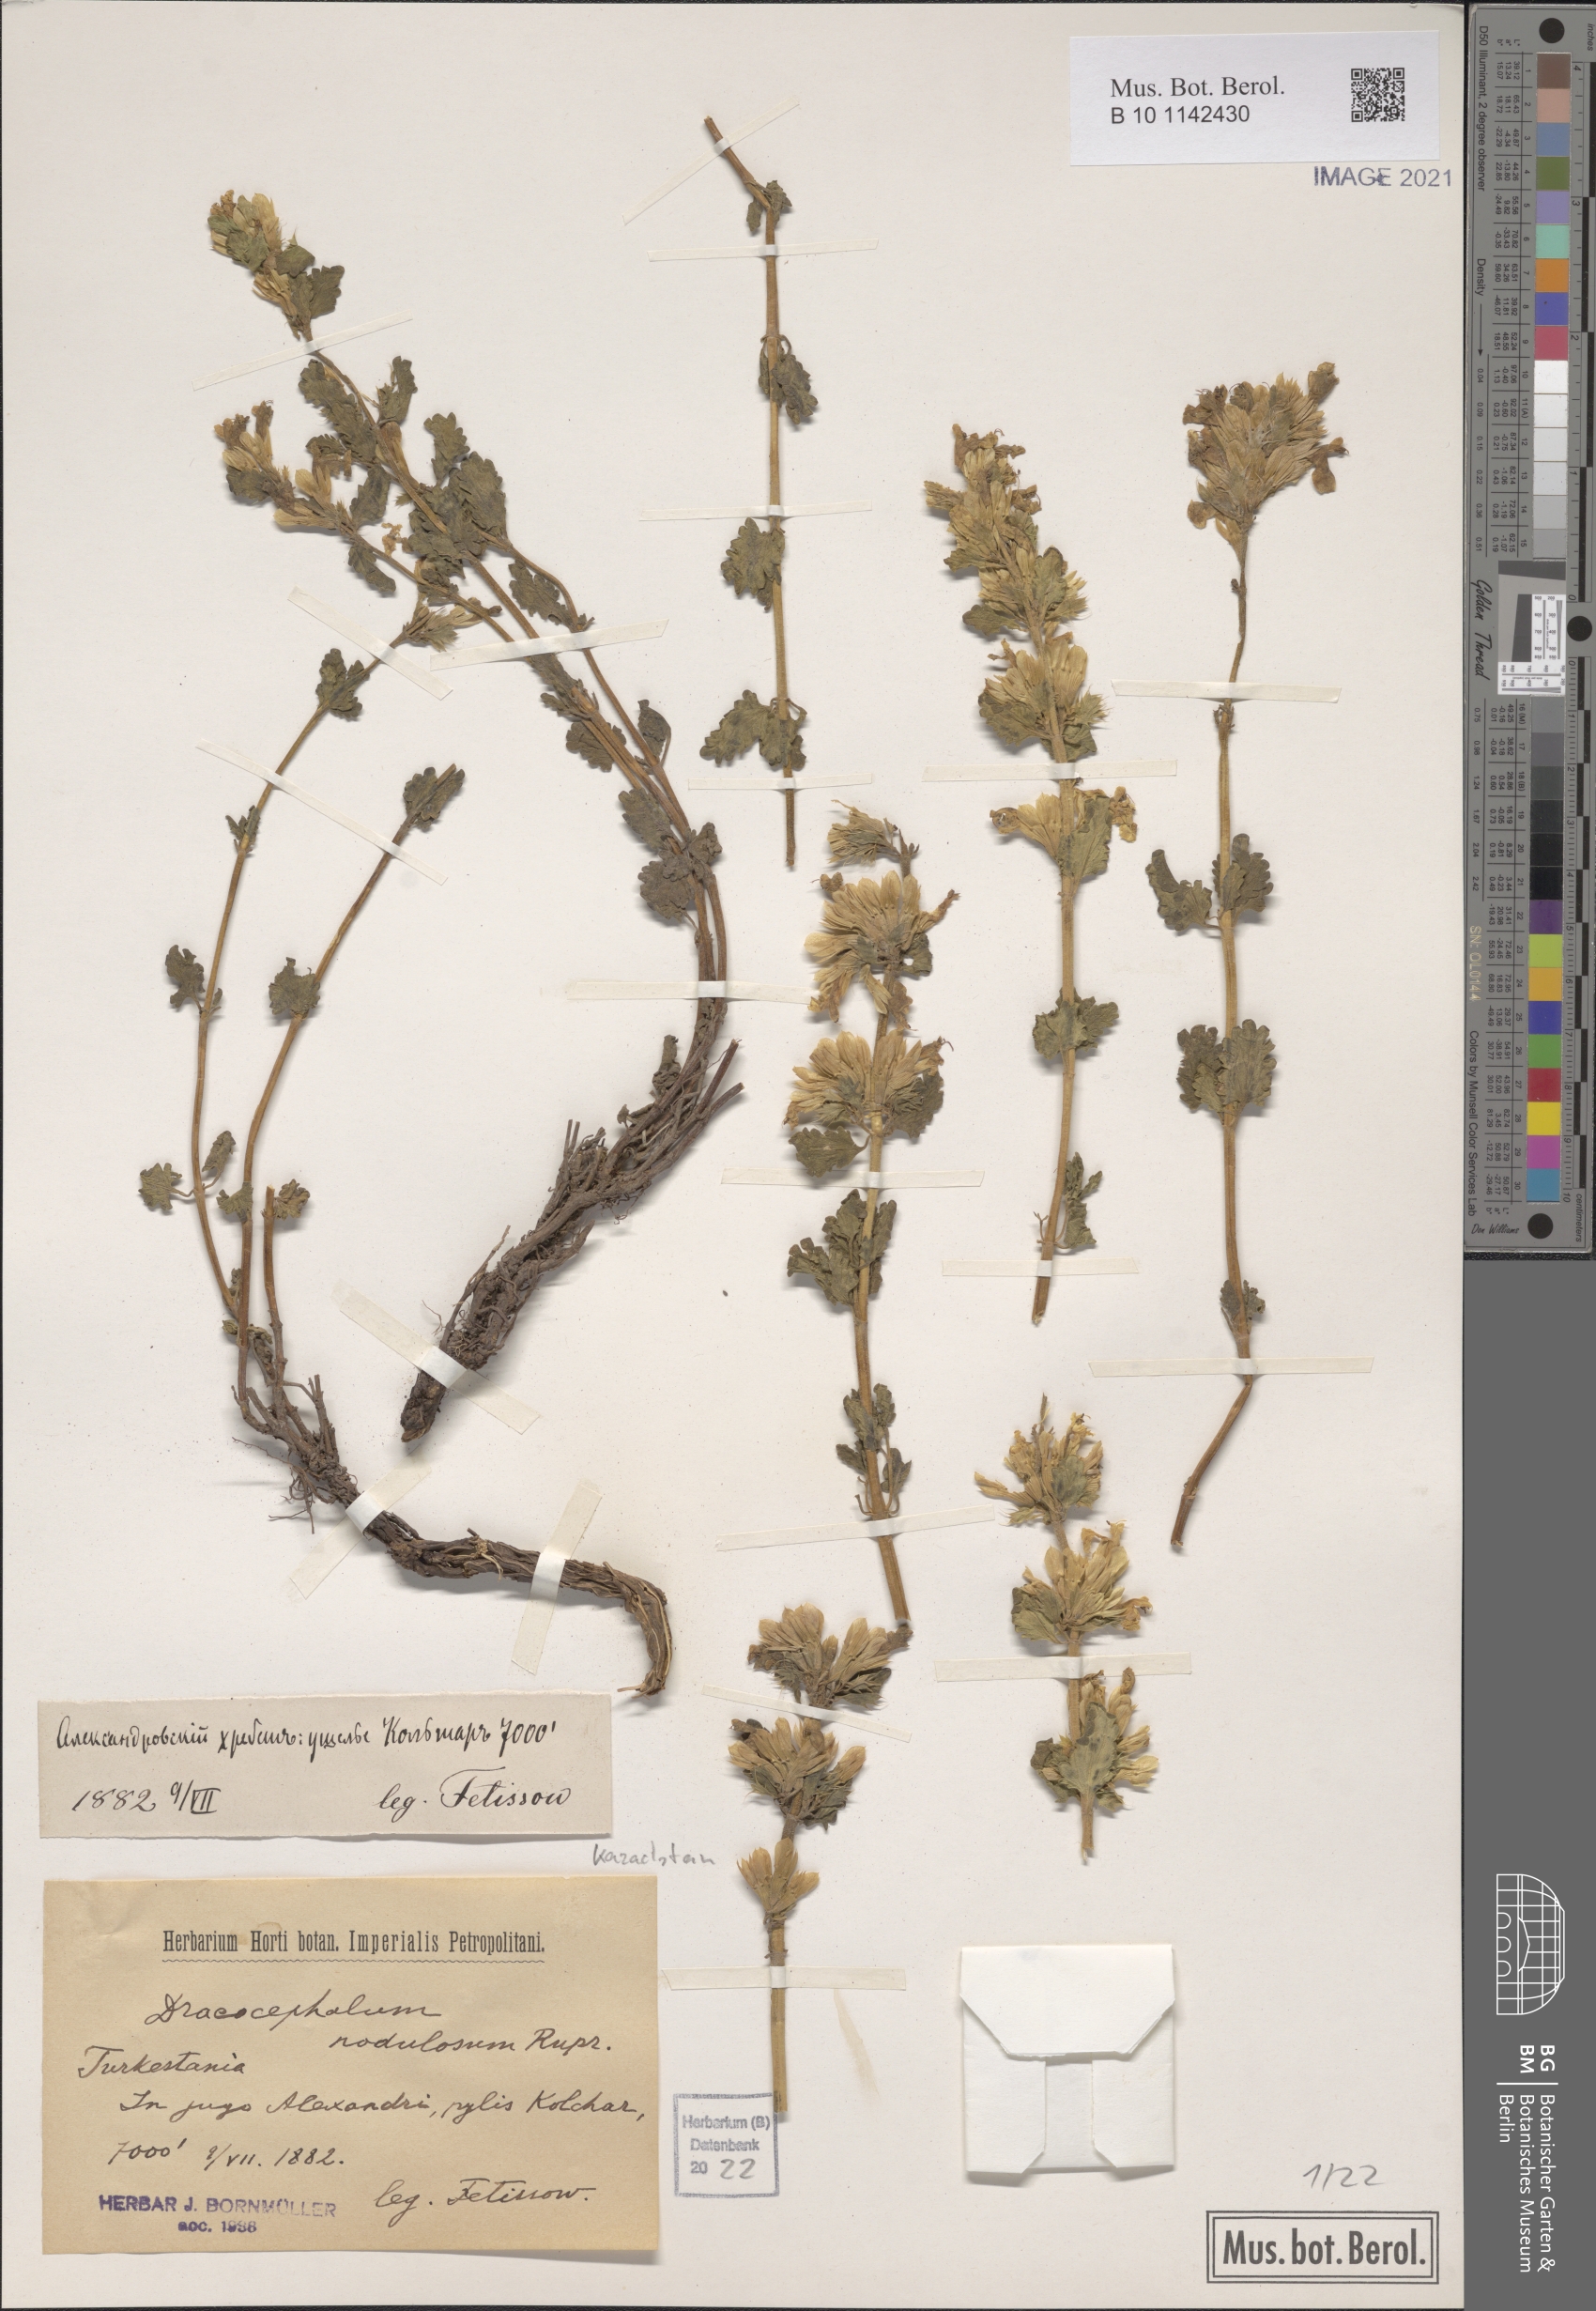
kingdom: Plantae
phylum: Tracheophyta
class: Magnoliopsida
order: Lamiales
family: Lamiaceae
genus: Dracocephalum
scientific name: Dracocephalum nodulosum
